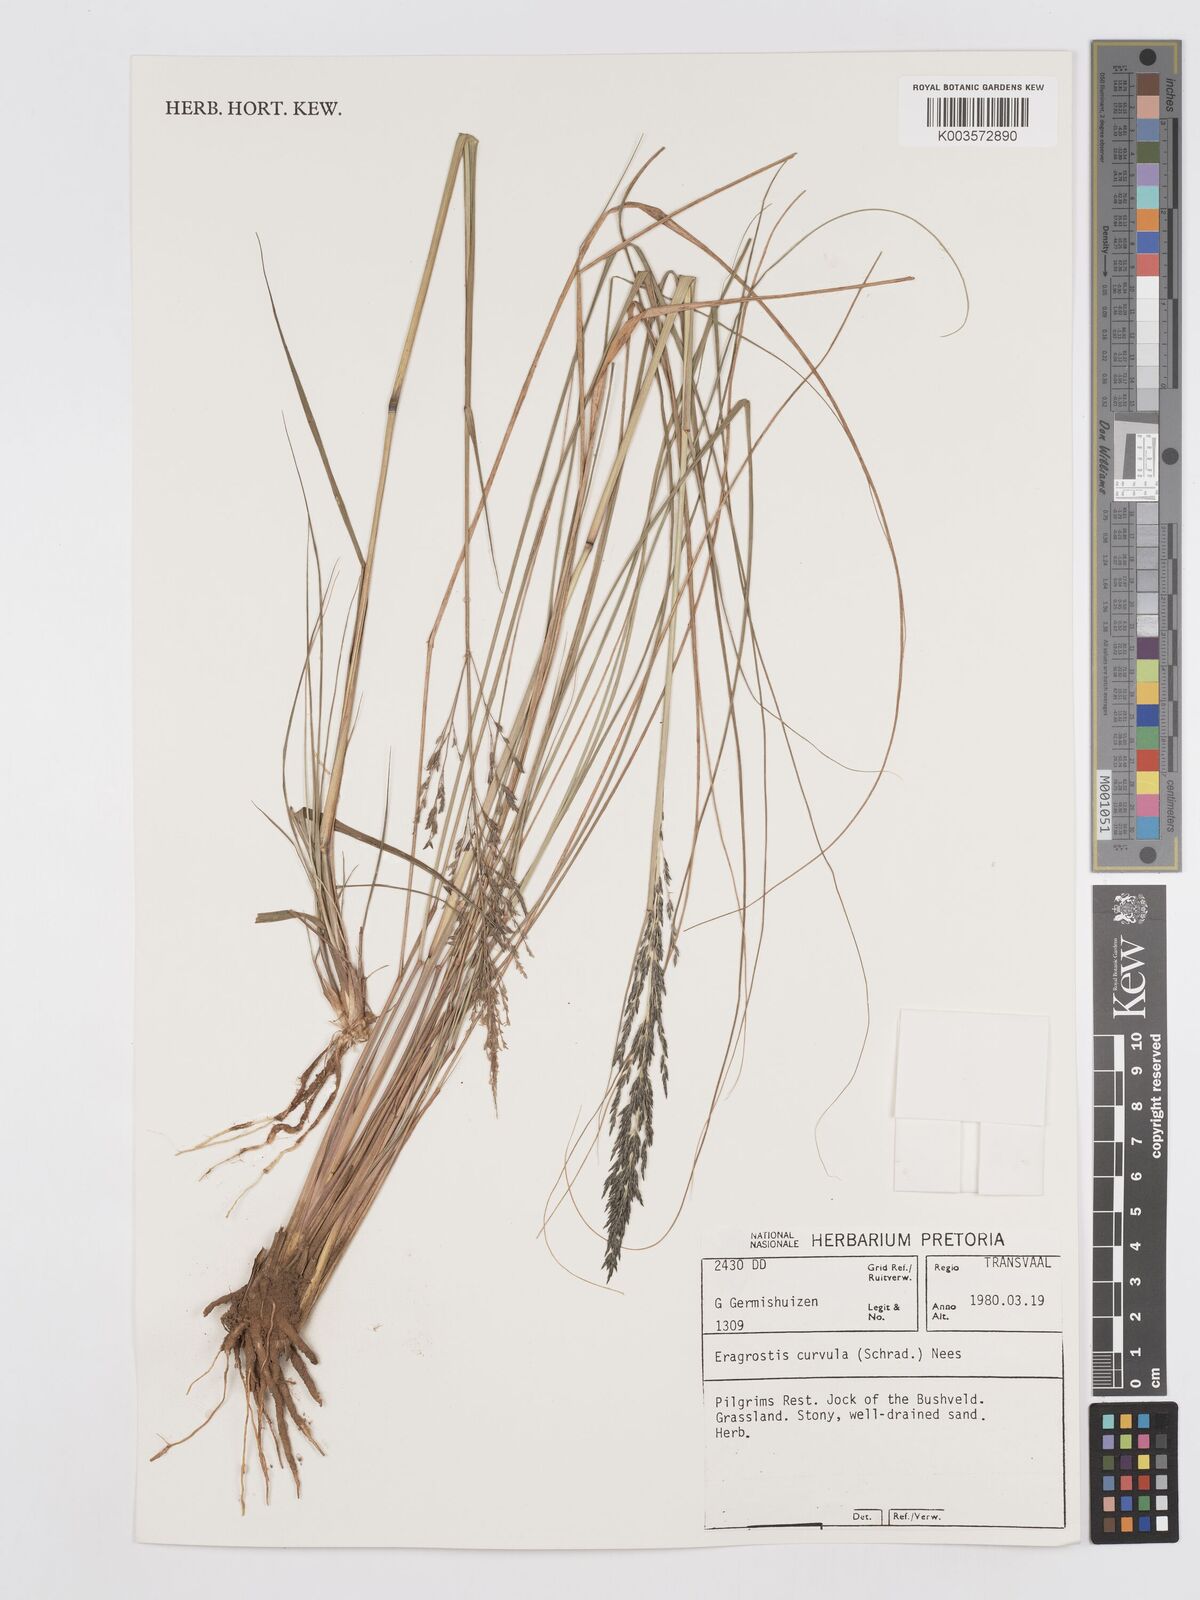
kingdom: Plantae
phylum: Tracheophyta
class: Liliopsida
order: Poales
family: Poaceae
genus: Eragrostis
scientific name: Eragrostis curvula
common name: African love-grass
